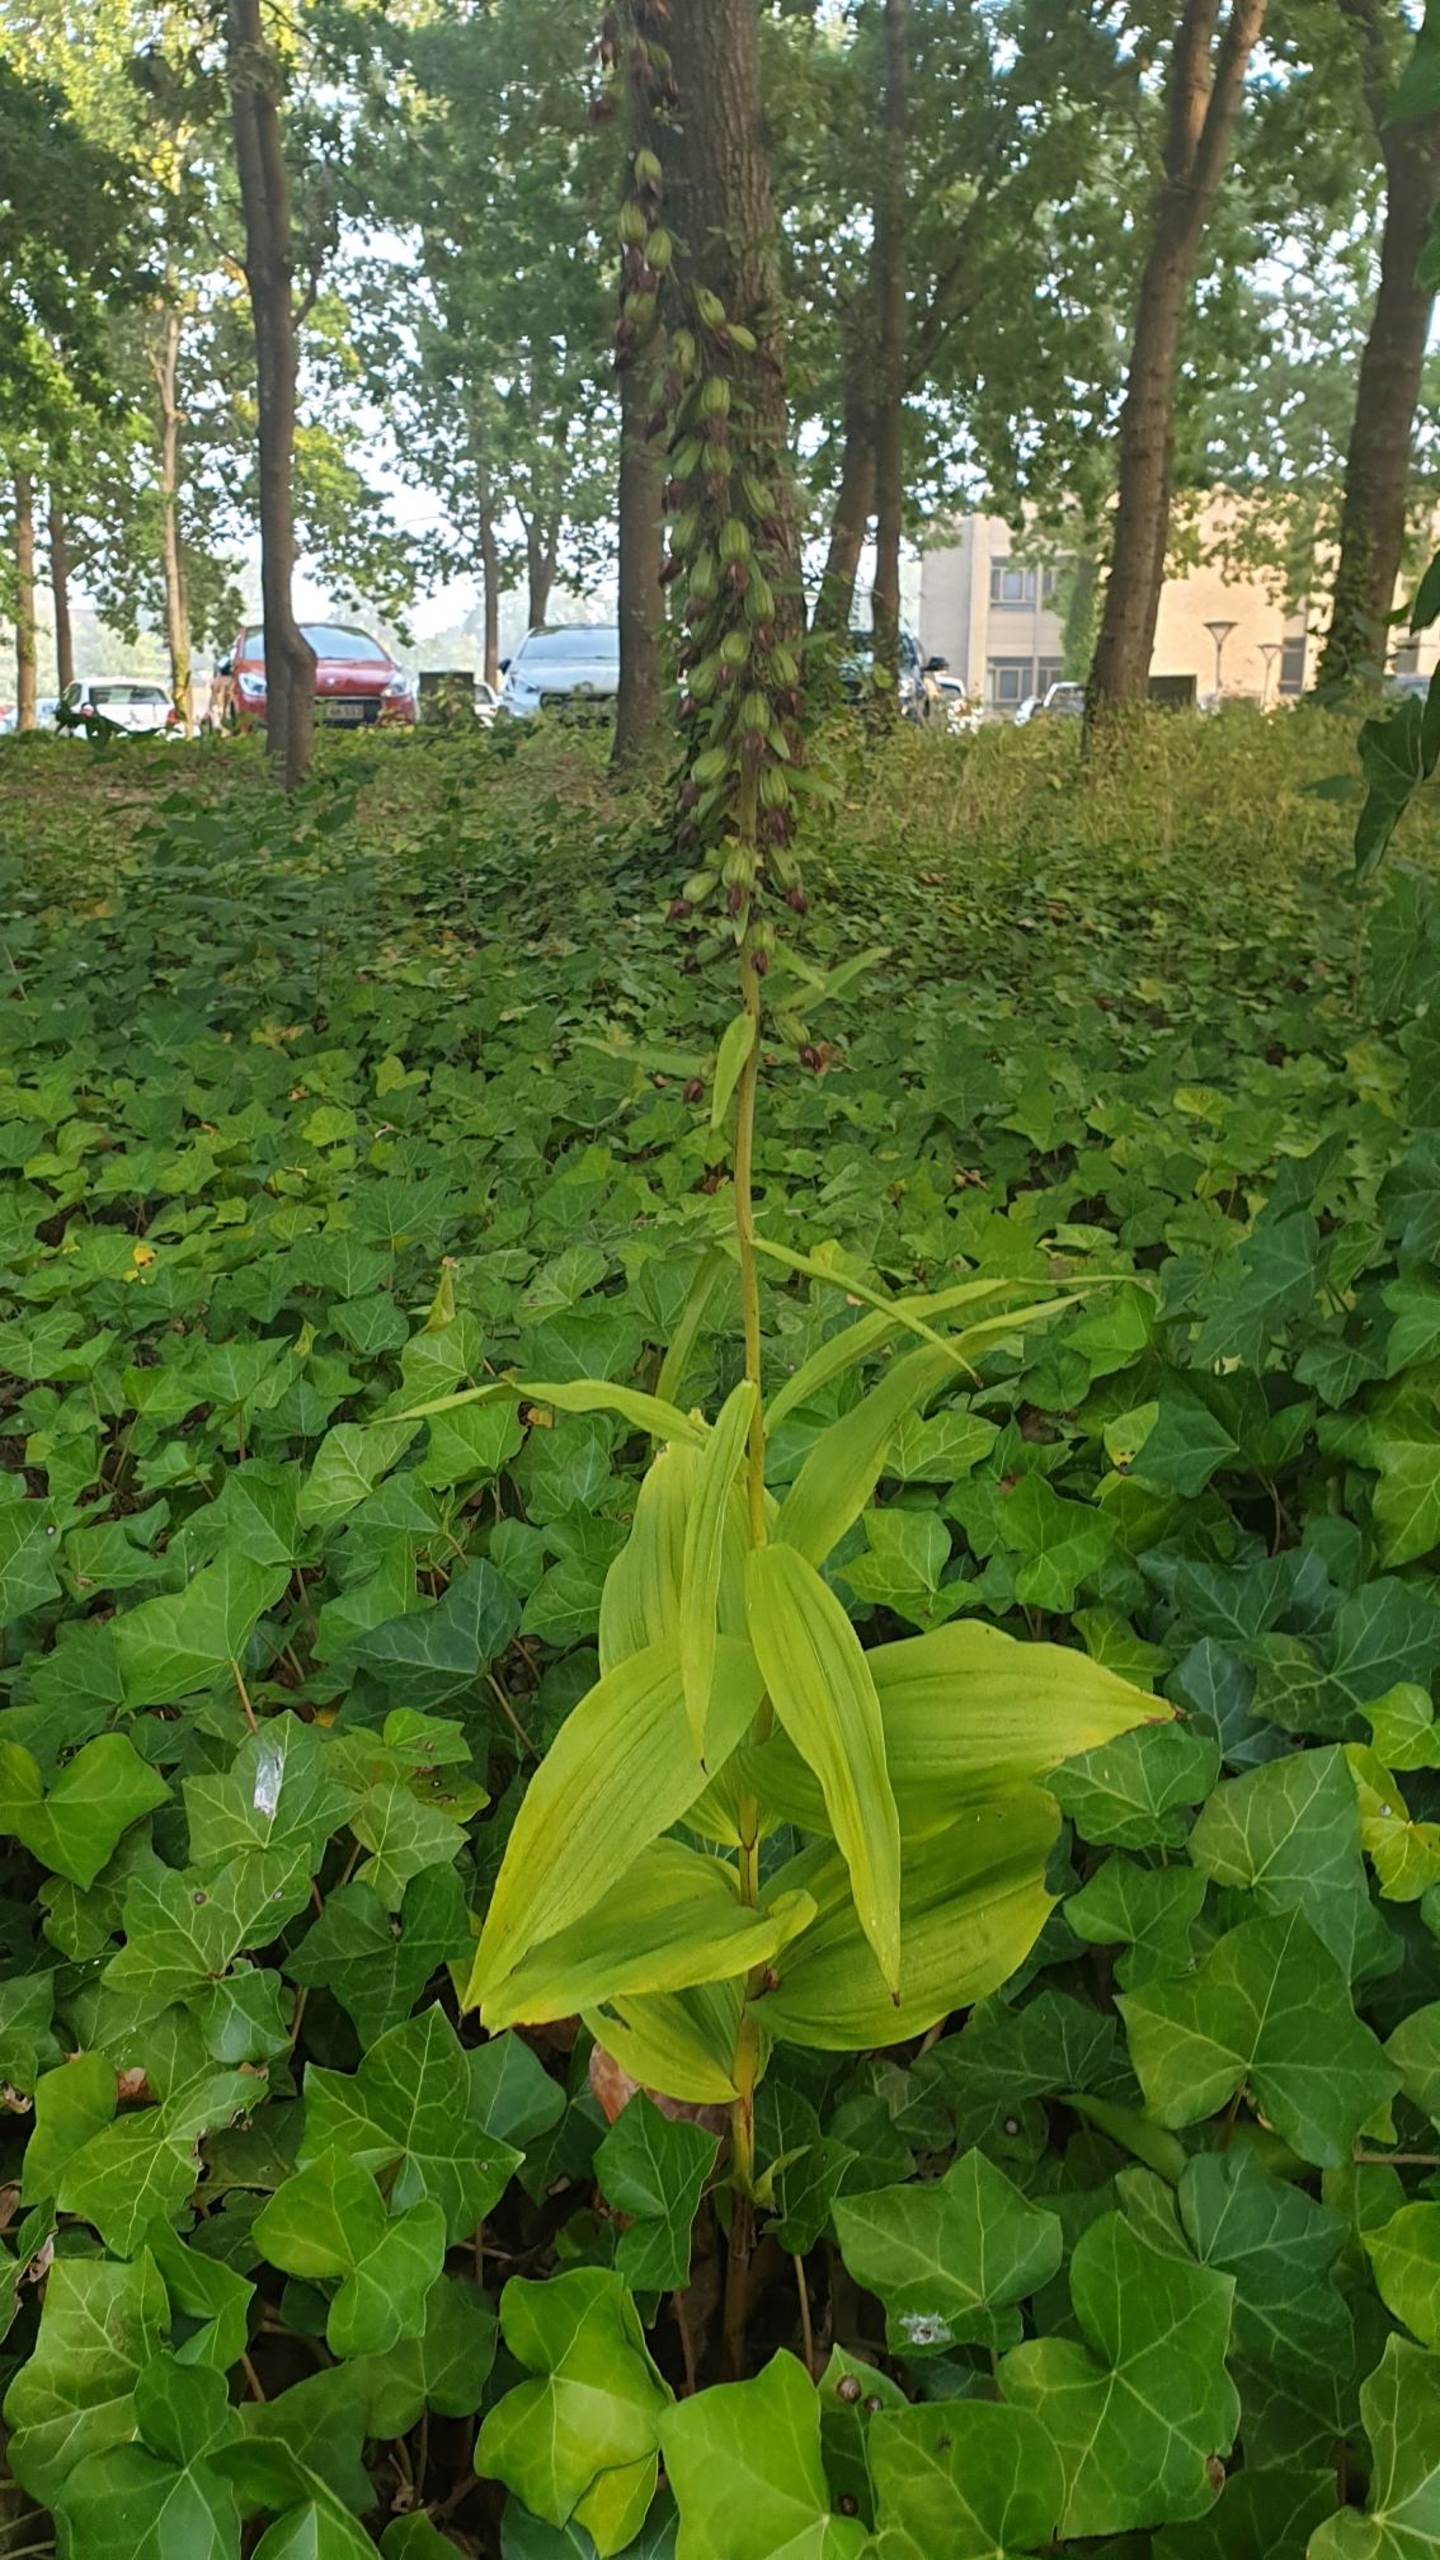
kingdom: Plantae
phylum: Tracheophyta
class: Liliopsida
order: Asparagales
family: Orchidaceae
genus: Epipactis
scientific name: Epipactis helleborine
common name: Skov-hullæbe
